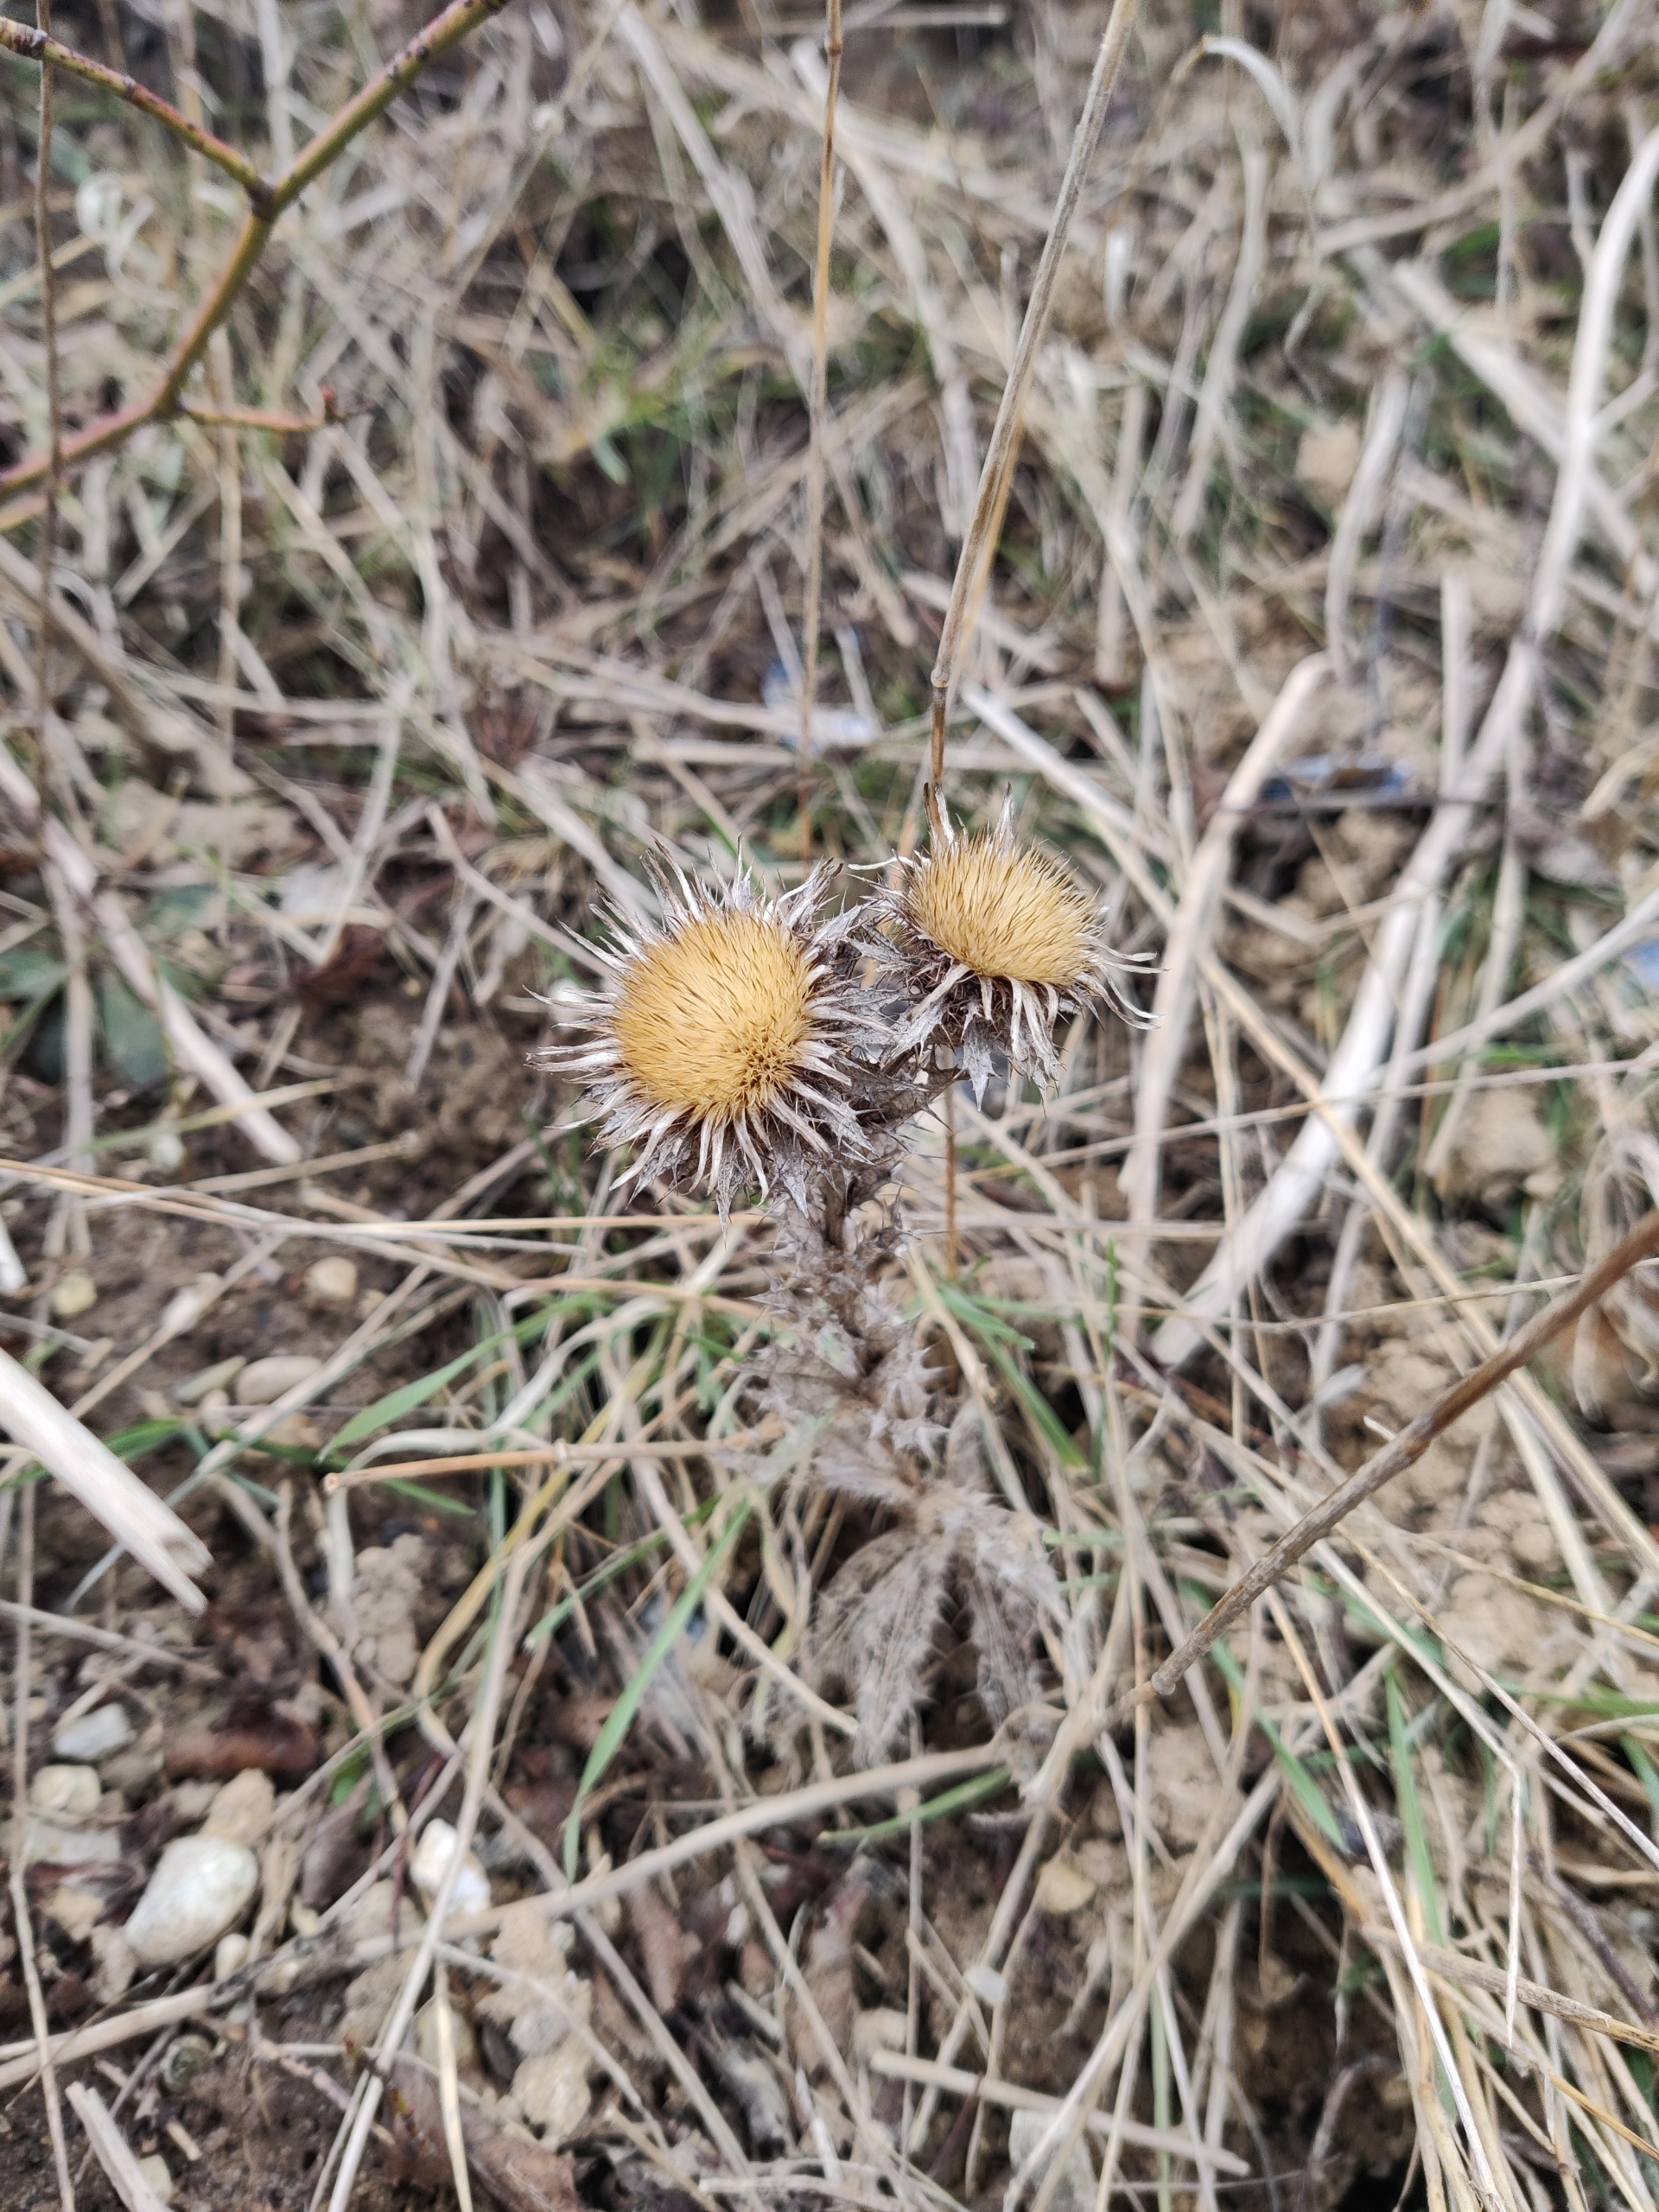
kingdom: Plantae
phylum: Tracheophyta
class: Magnoliopsida
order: Asterales
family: Asteraceae
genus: Carlina
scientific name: Carlina vulgaris
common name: Bakketidsel
